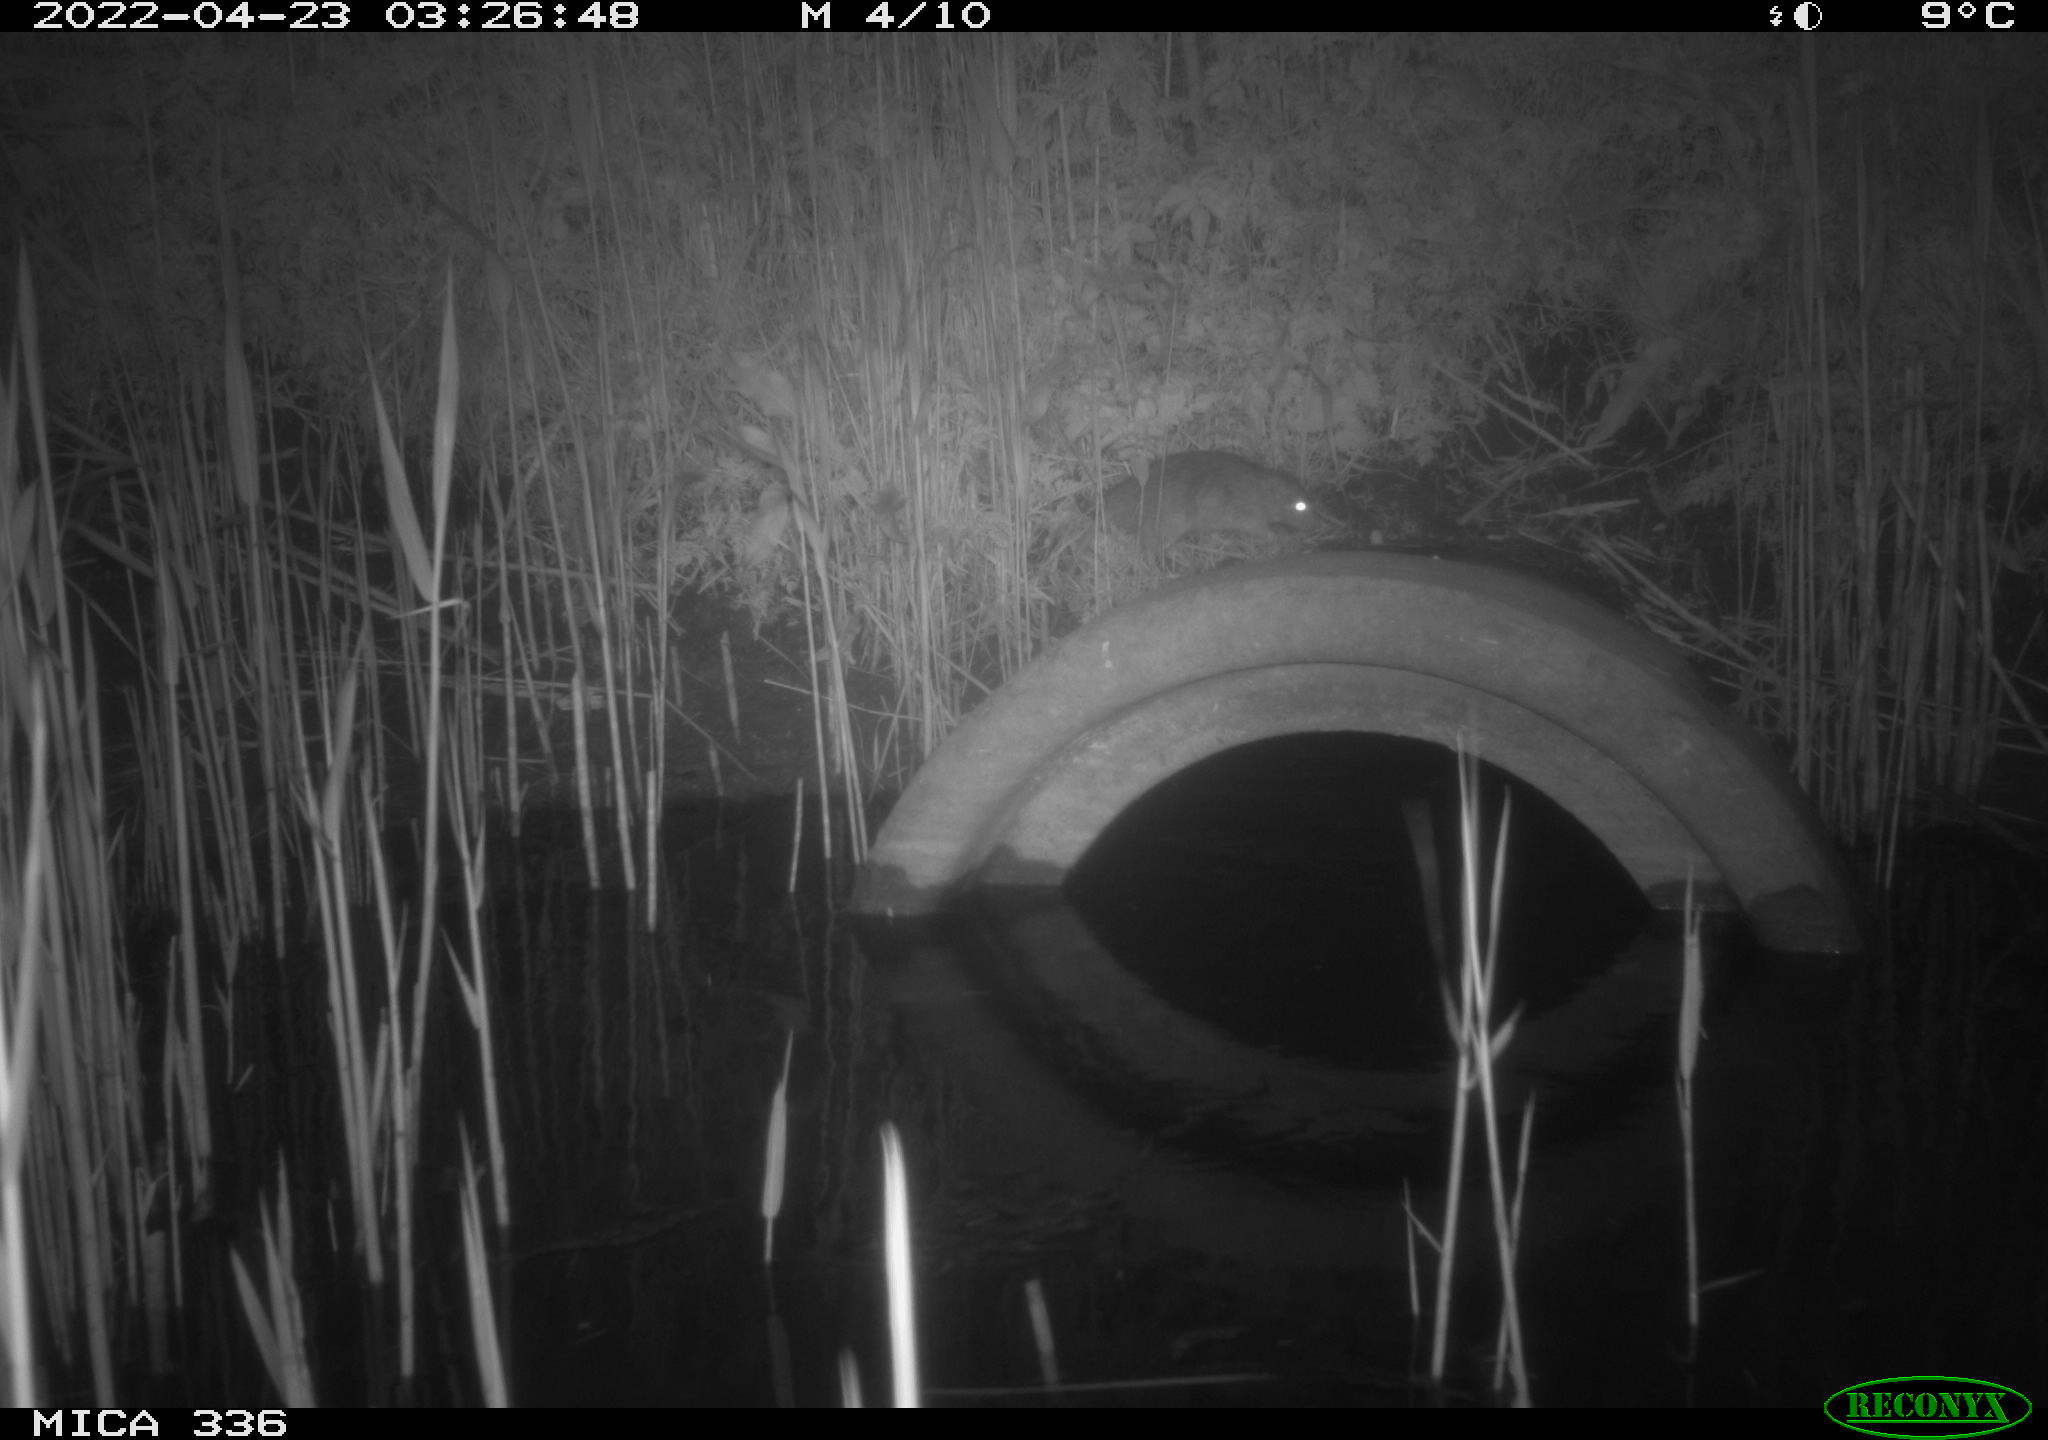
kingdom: Animalia
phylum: Chordata
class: Mammalia
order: Rodentia
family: Muridae
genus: Rattus
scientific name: Rattus norvegicus
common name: Brown rat
